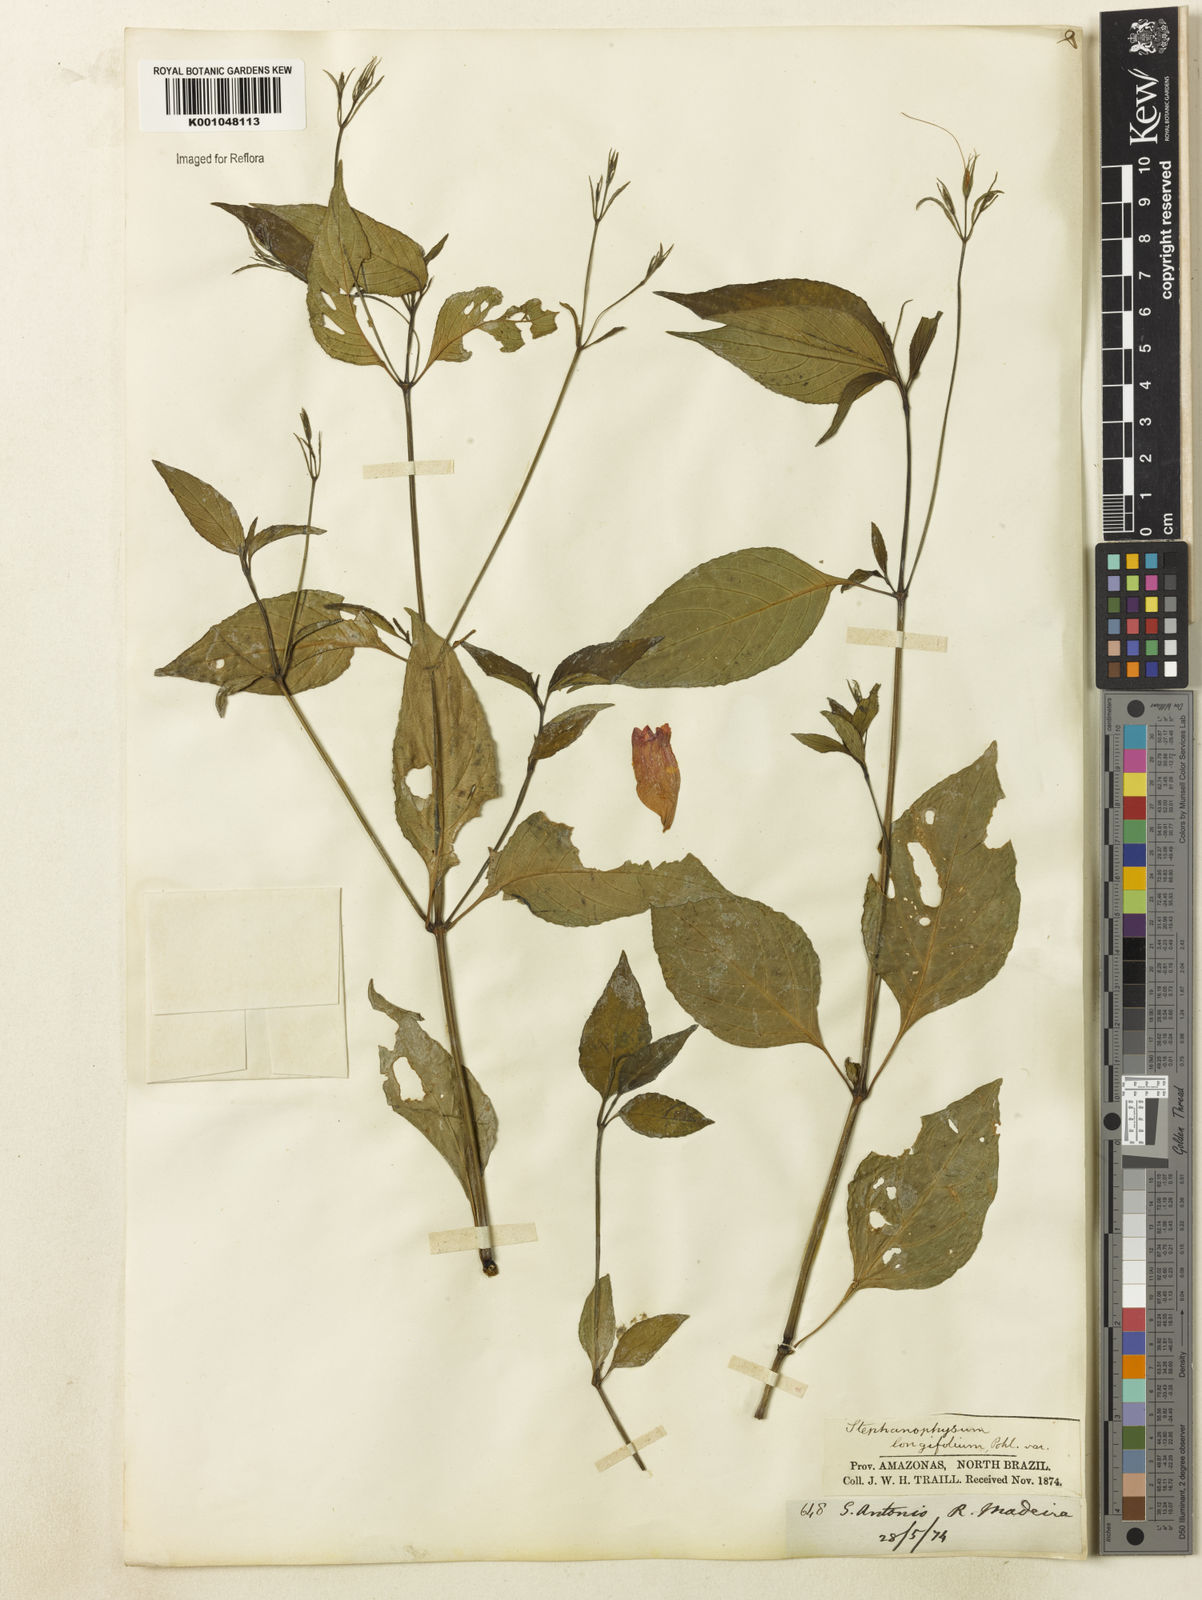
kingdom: Plantae
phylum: Tracheophyta
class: Magnoliopsida
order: Lamiales
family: Acanthaceae
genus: Ruellia
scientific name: Ruellia brevifolia
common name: Tropical wild petunia
